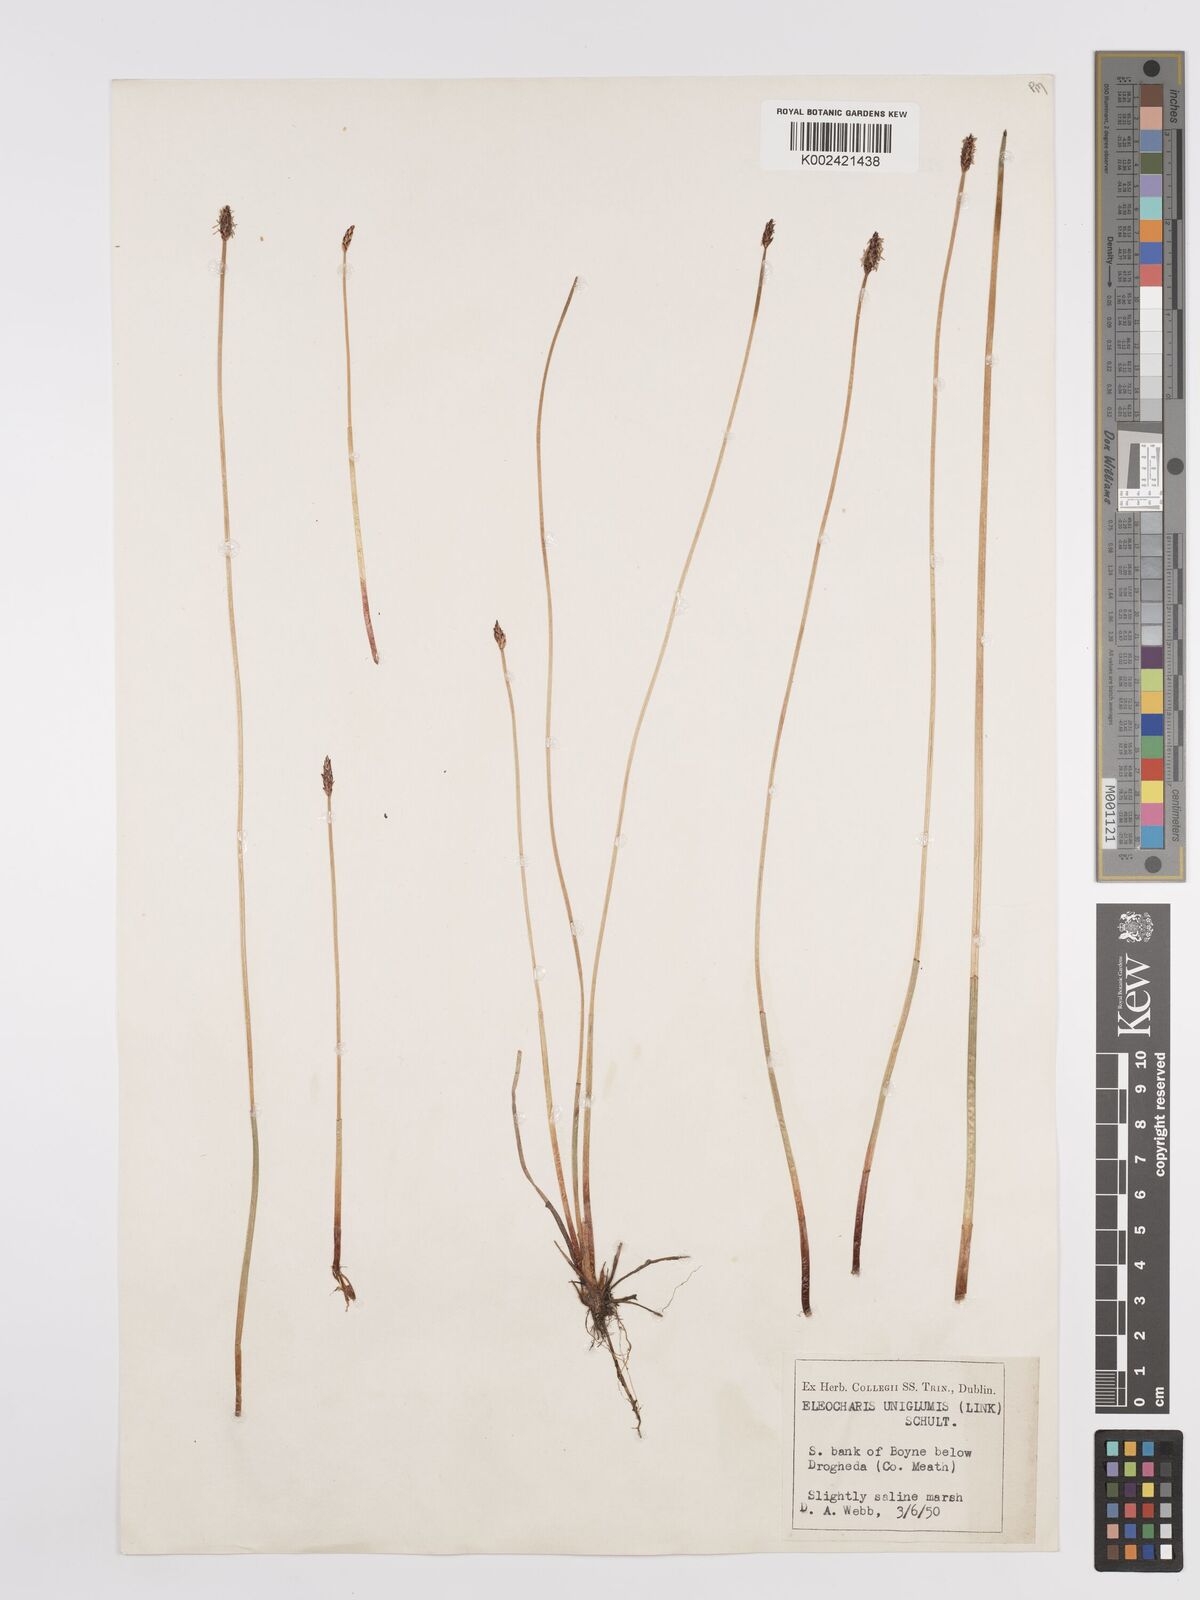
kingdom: Plantae
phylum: Tracheophyta
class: Liliopsida
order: Poales
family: Cyperaceae
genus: Eleocharis
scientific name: Eleocharis uniglumis
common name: Slender spike-rush
